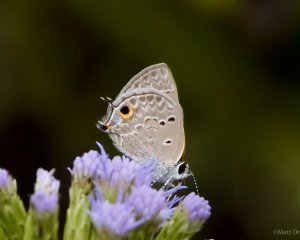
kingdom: Animalia
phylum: Arthropoda
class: Insecta
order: Lepidoptera
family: Lycaenidae
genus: Callicista
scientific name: Callicista columella
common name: Mallow Scrub-Hairstreak
